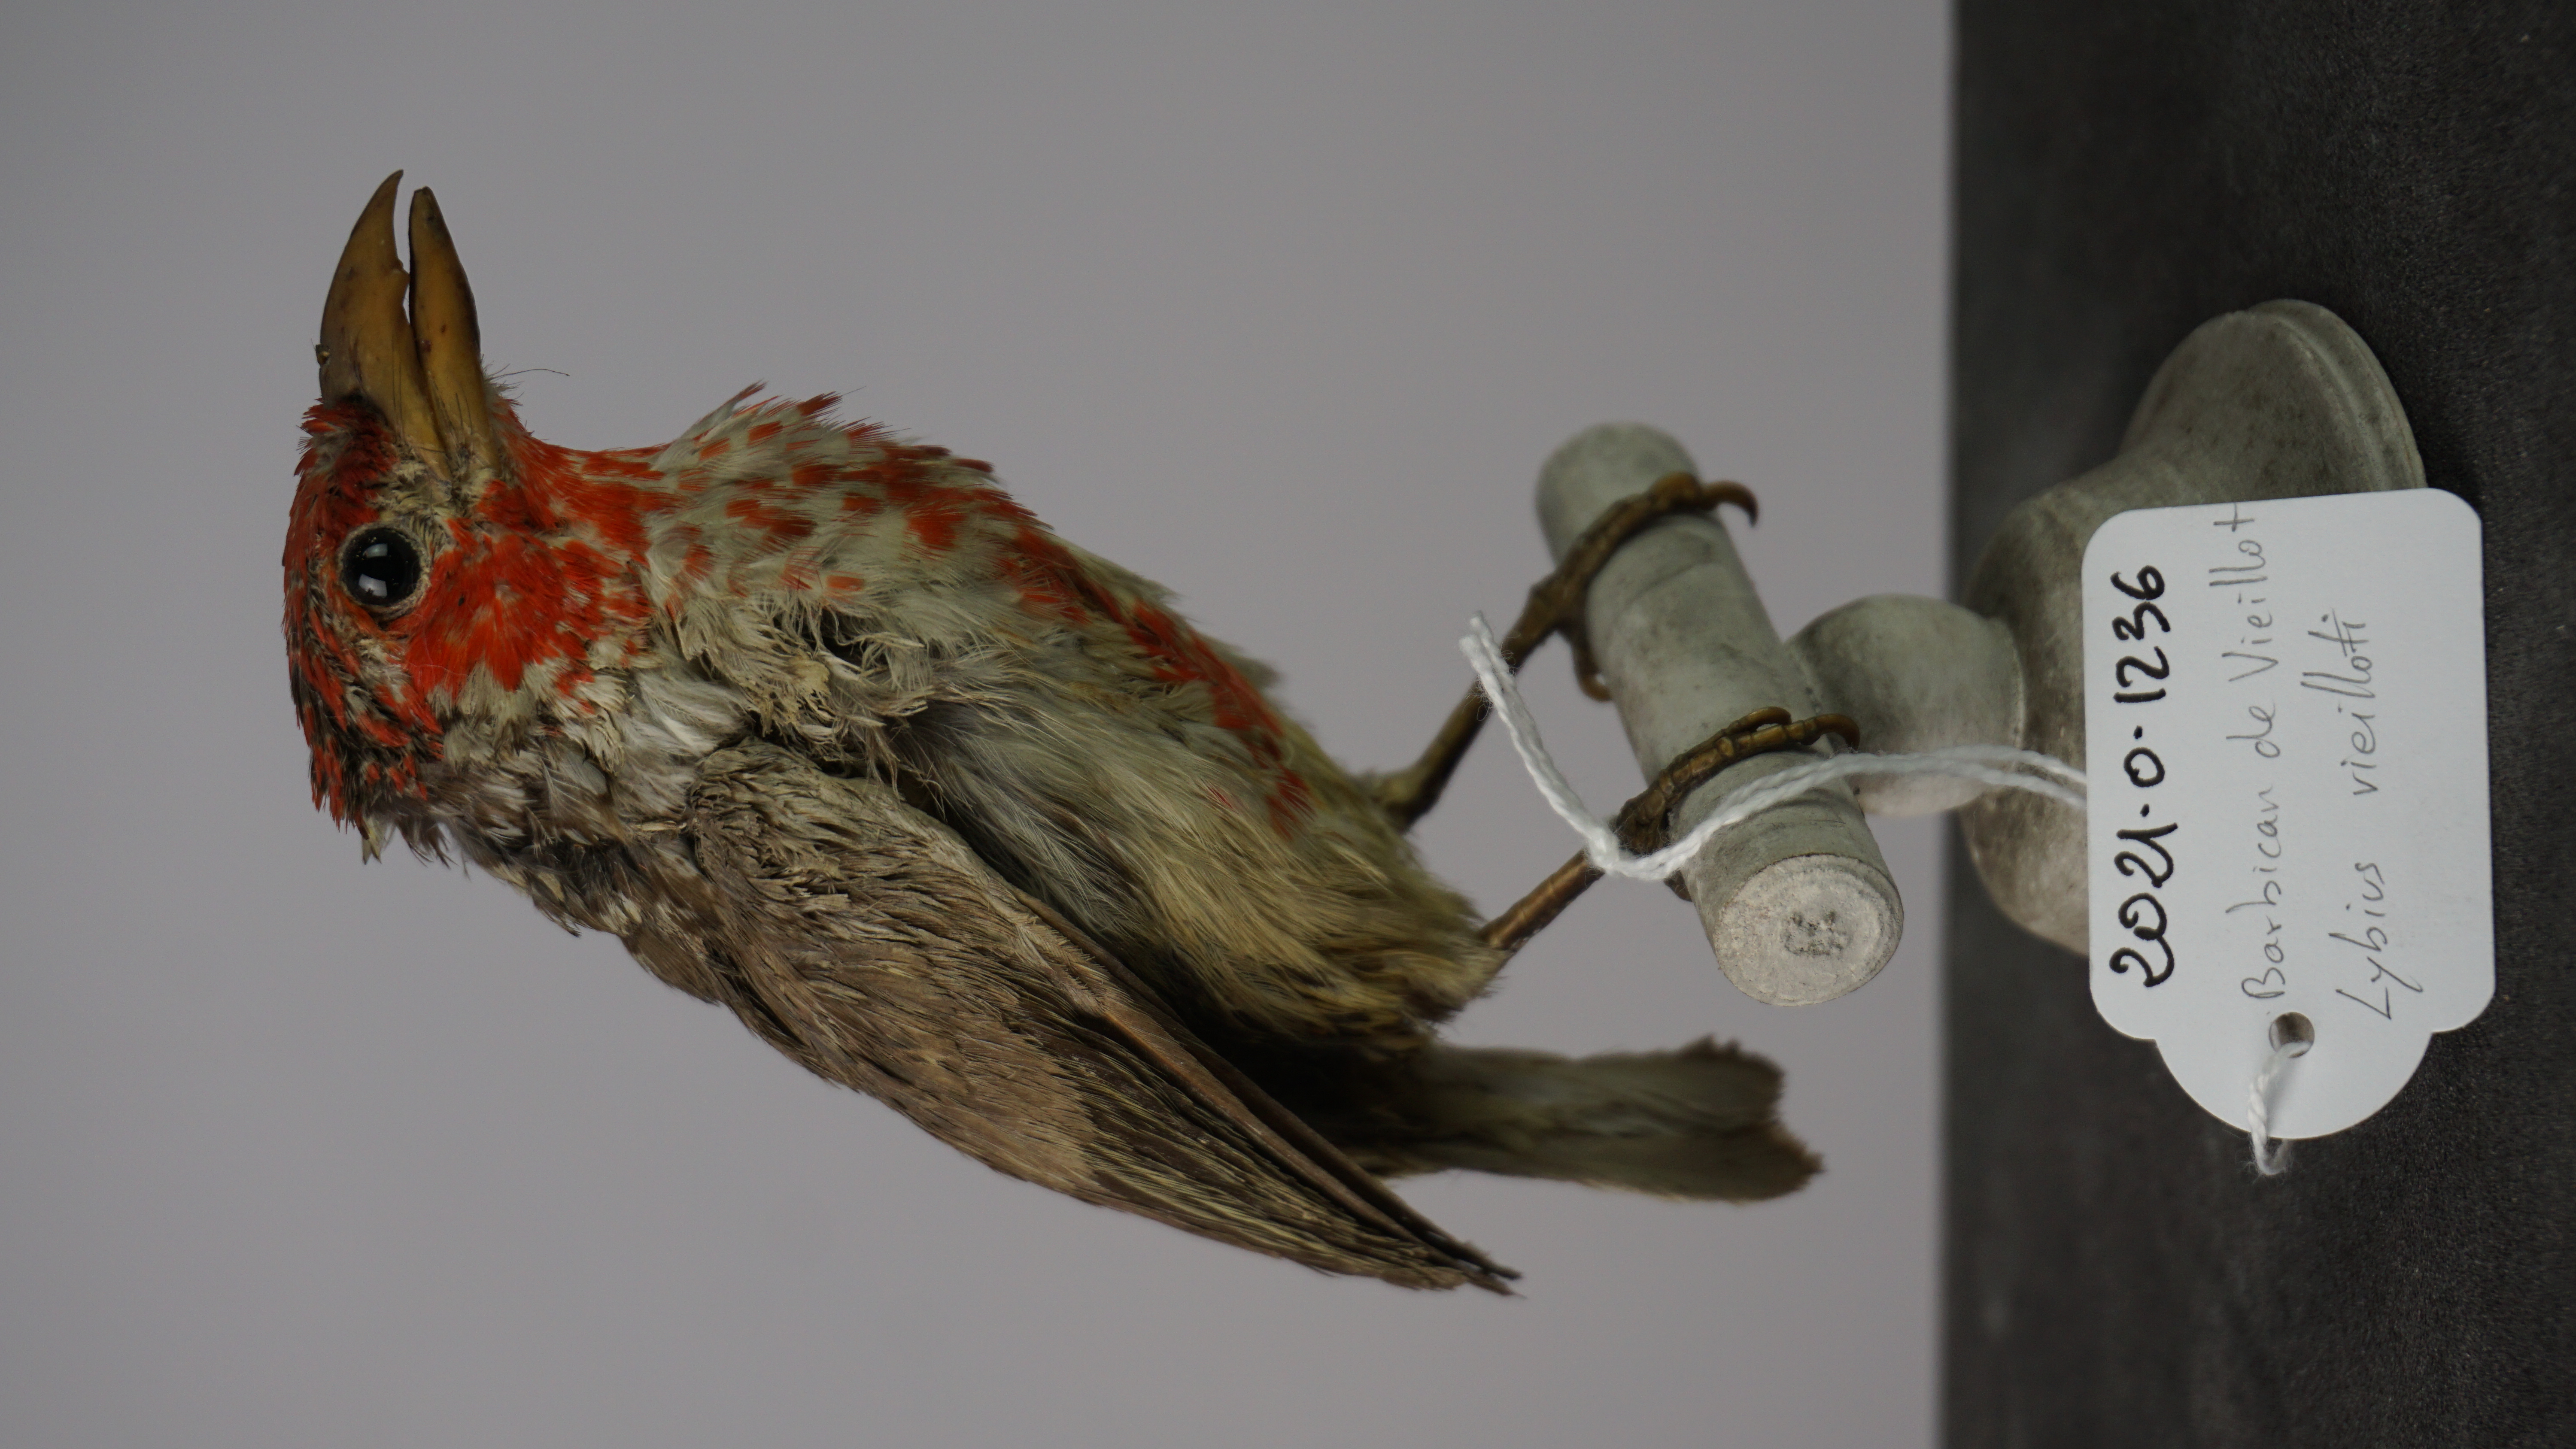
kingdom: Animalia
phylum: Chordata
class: Aves
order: Piciformes
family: Lybiidae
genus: Lybius
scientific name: Lybius vieilloti
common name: Vieillot's barbet
